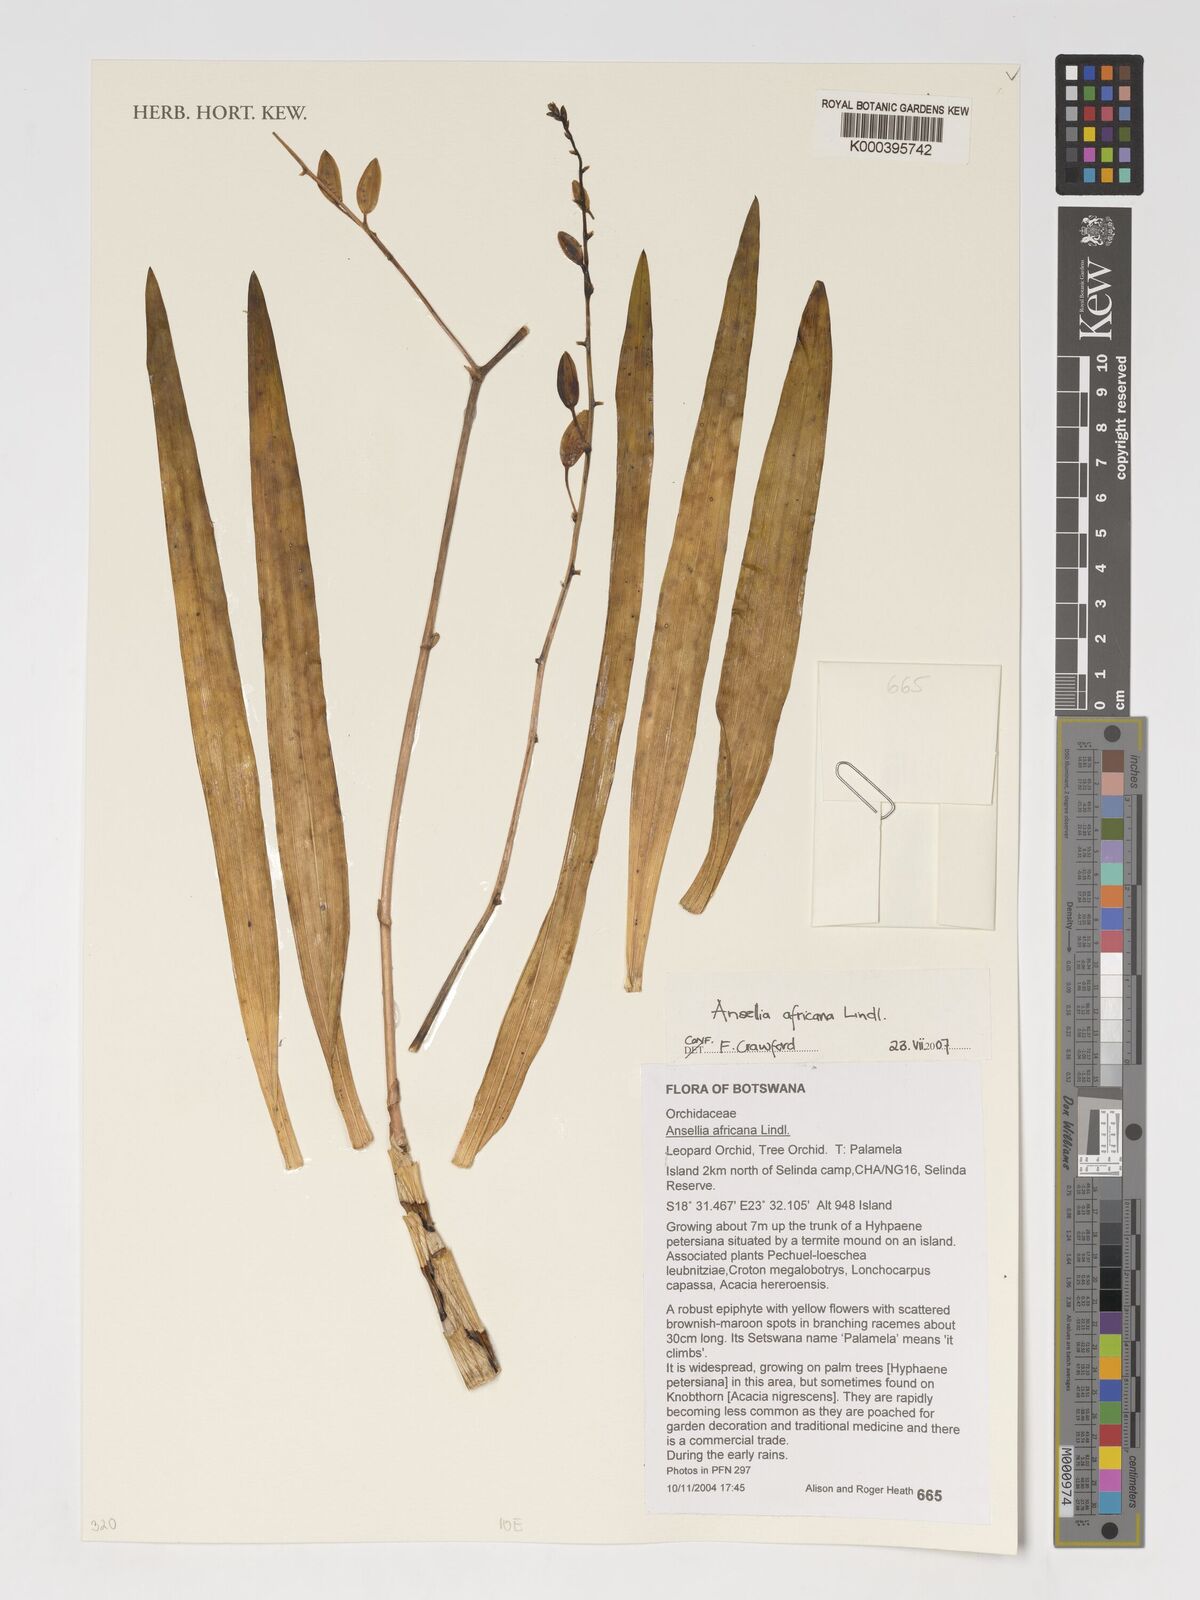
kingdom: Plantae
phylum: Tracheophyta
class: Liliopsida
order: Asparagales
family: Orchidaceae
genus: Ansellia
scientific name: Ansellia africana
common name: African ansellia
